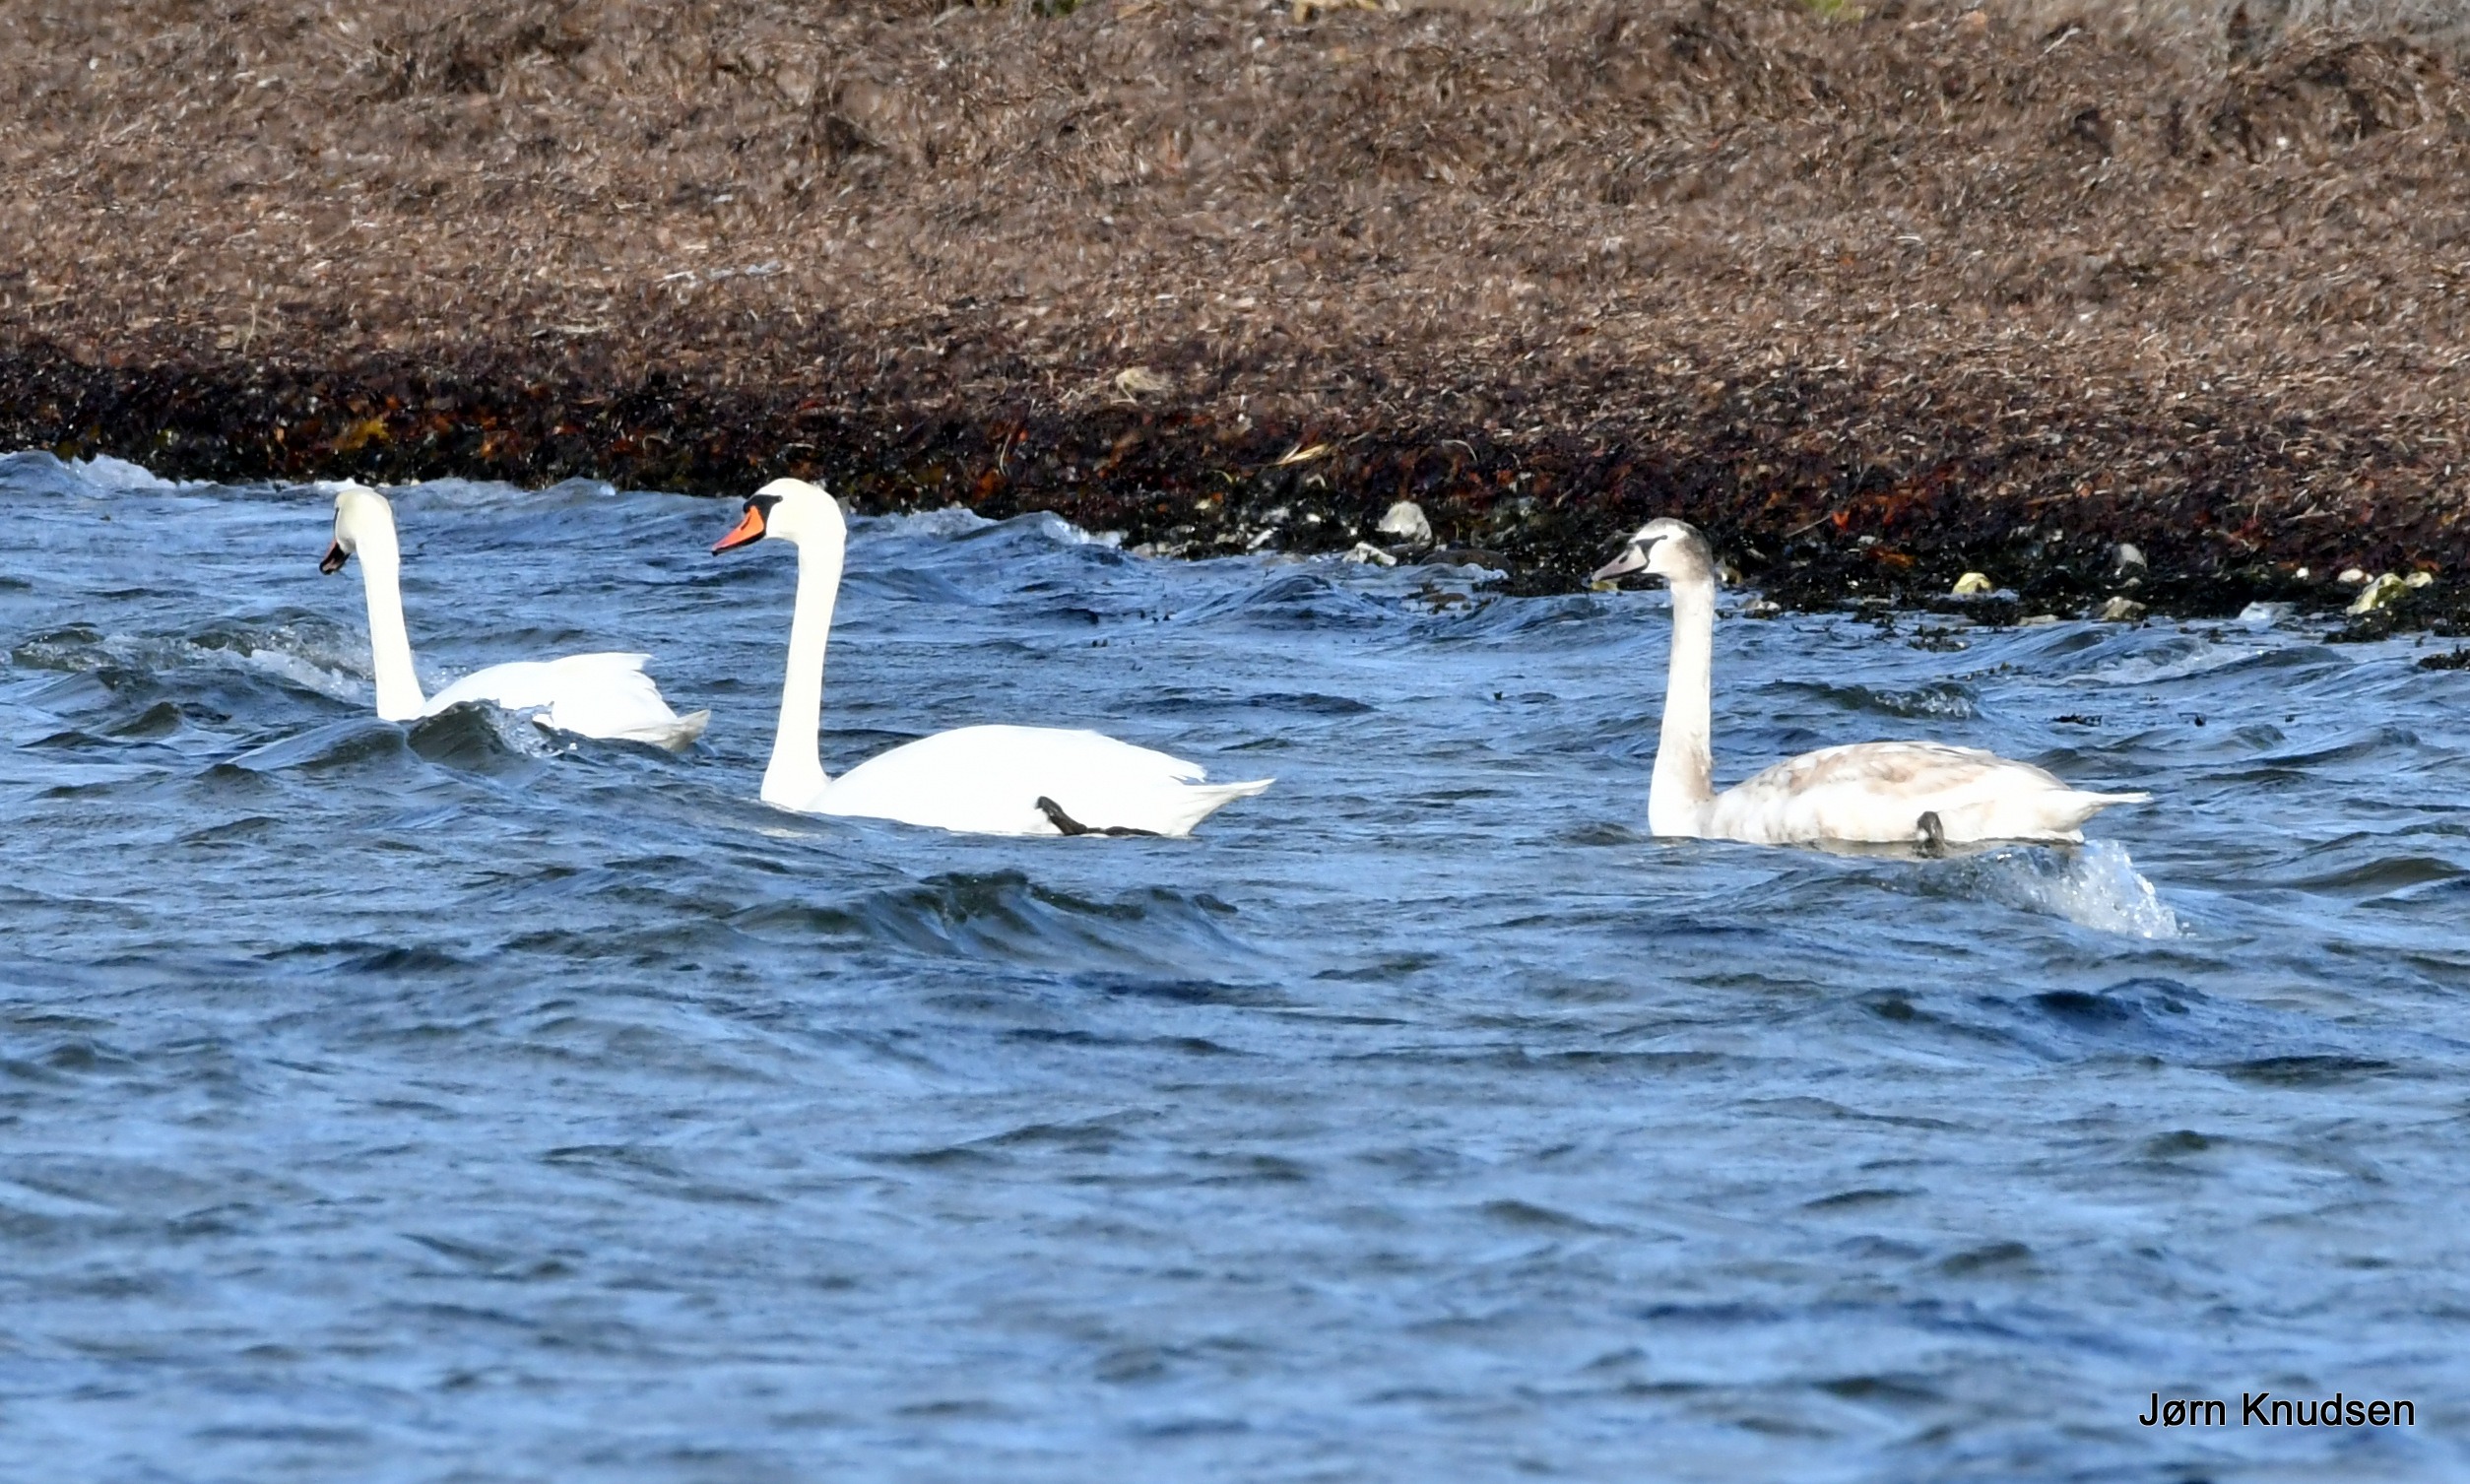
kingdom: Animalia
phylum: Chordata
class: Aves
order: Anseriformes
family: Anatidae
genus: Cygnus
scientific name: Cygnus olor
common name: Knopsvane
